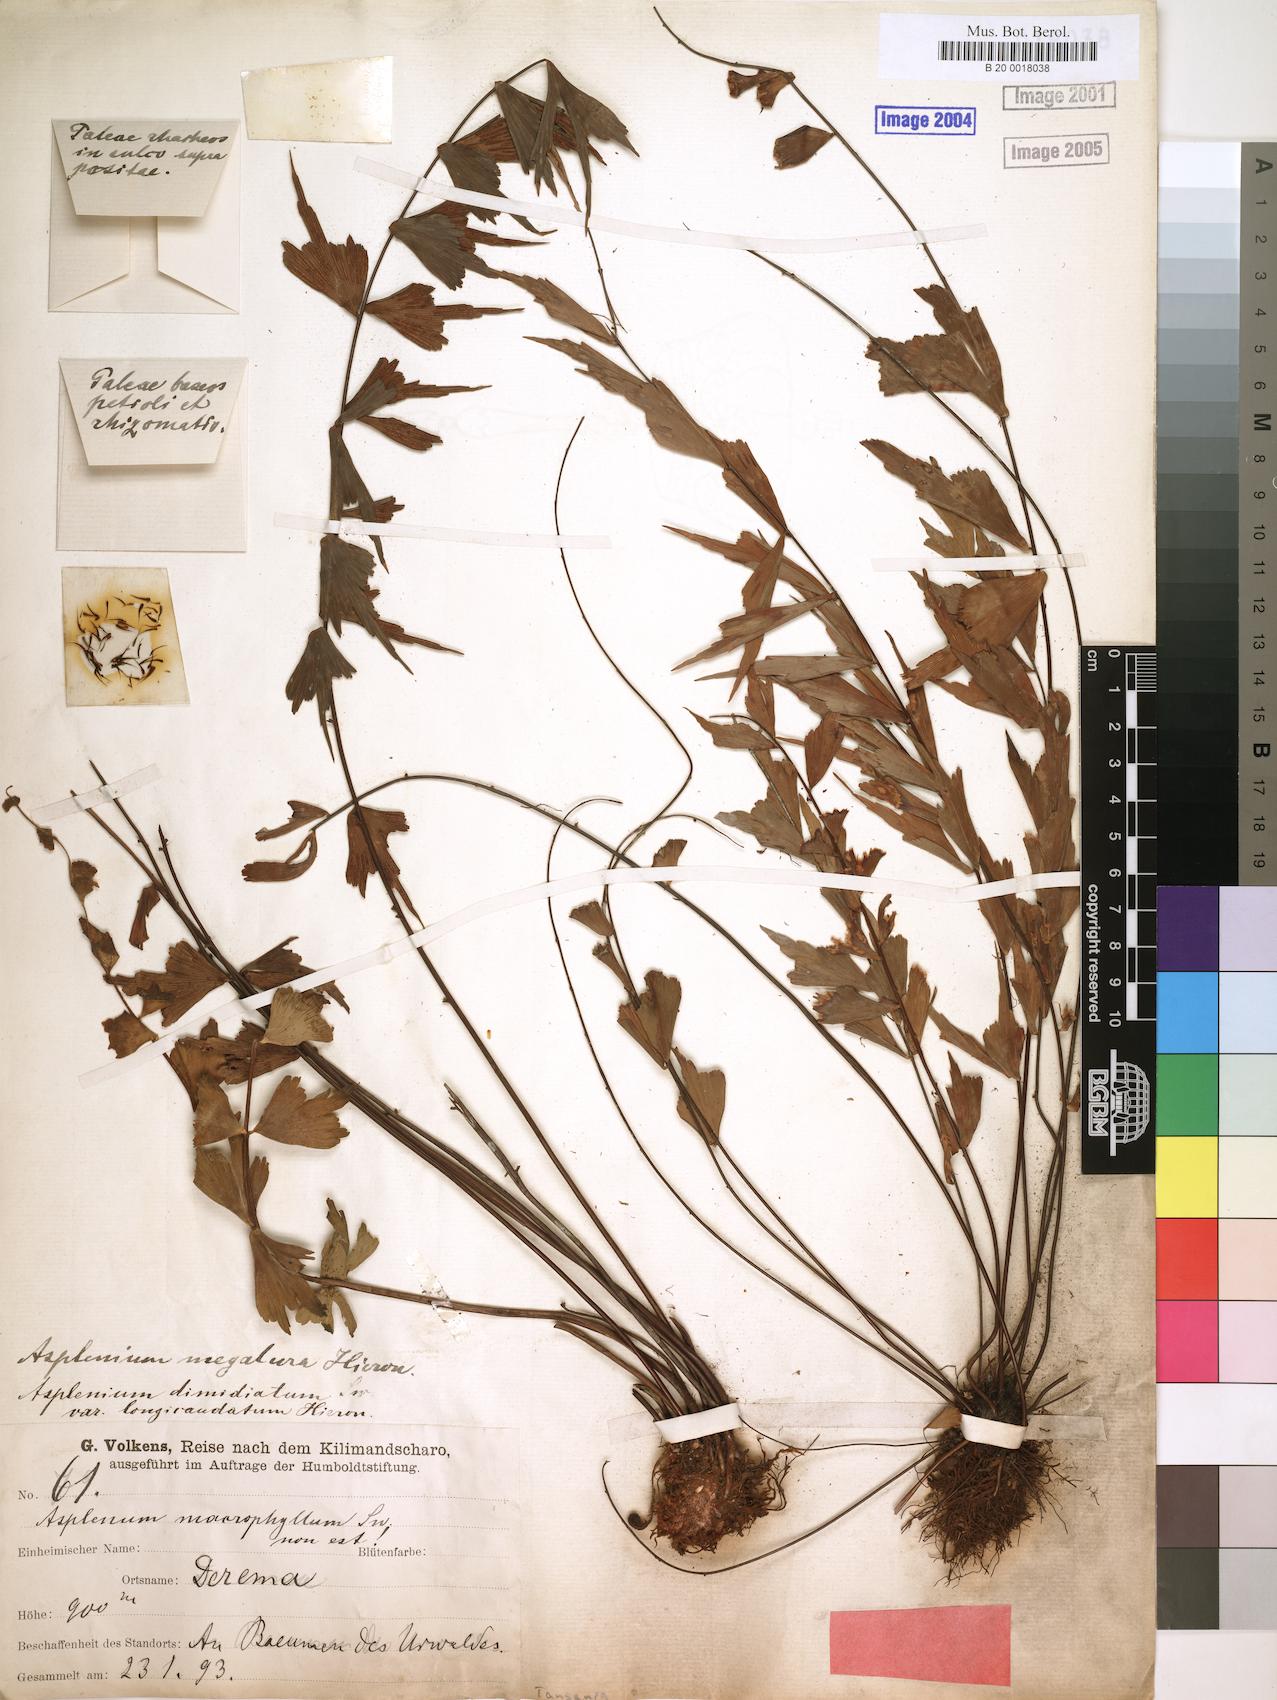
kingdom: Plantae
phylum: Tracheophyta
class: Polypodiopsida
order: Polypodiales
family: Aspleniaceae
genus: Asplenium
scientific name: Asplenium megalura
